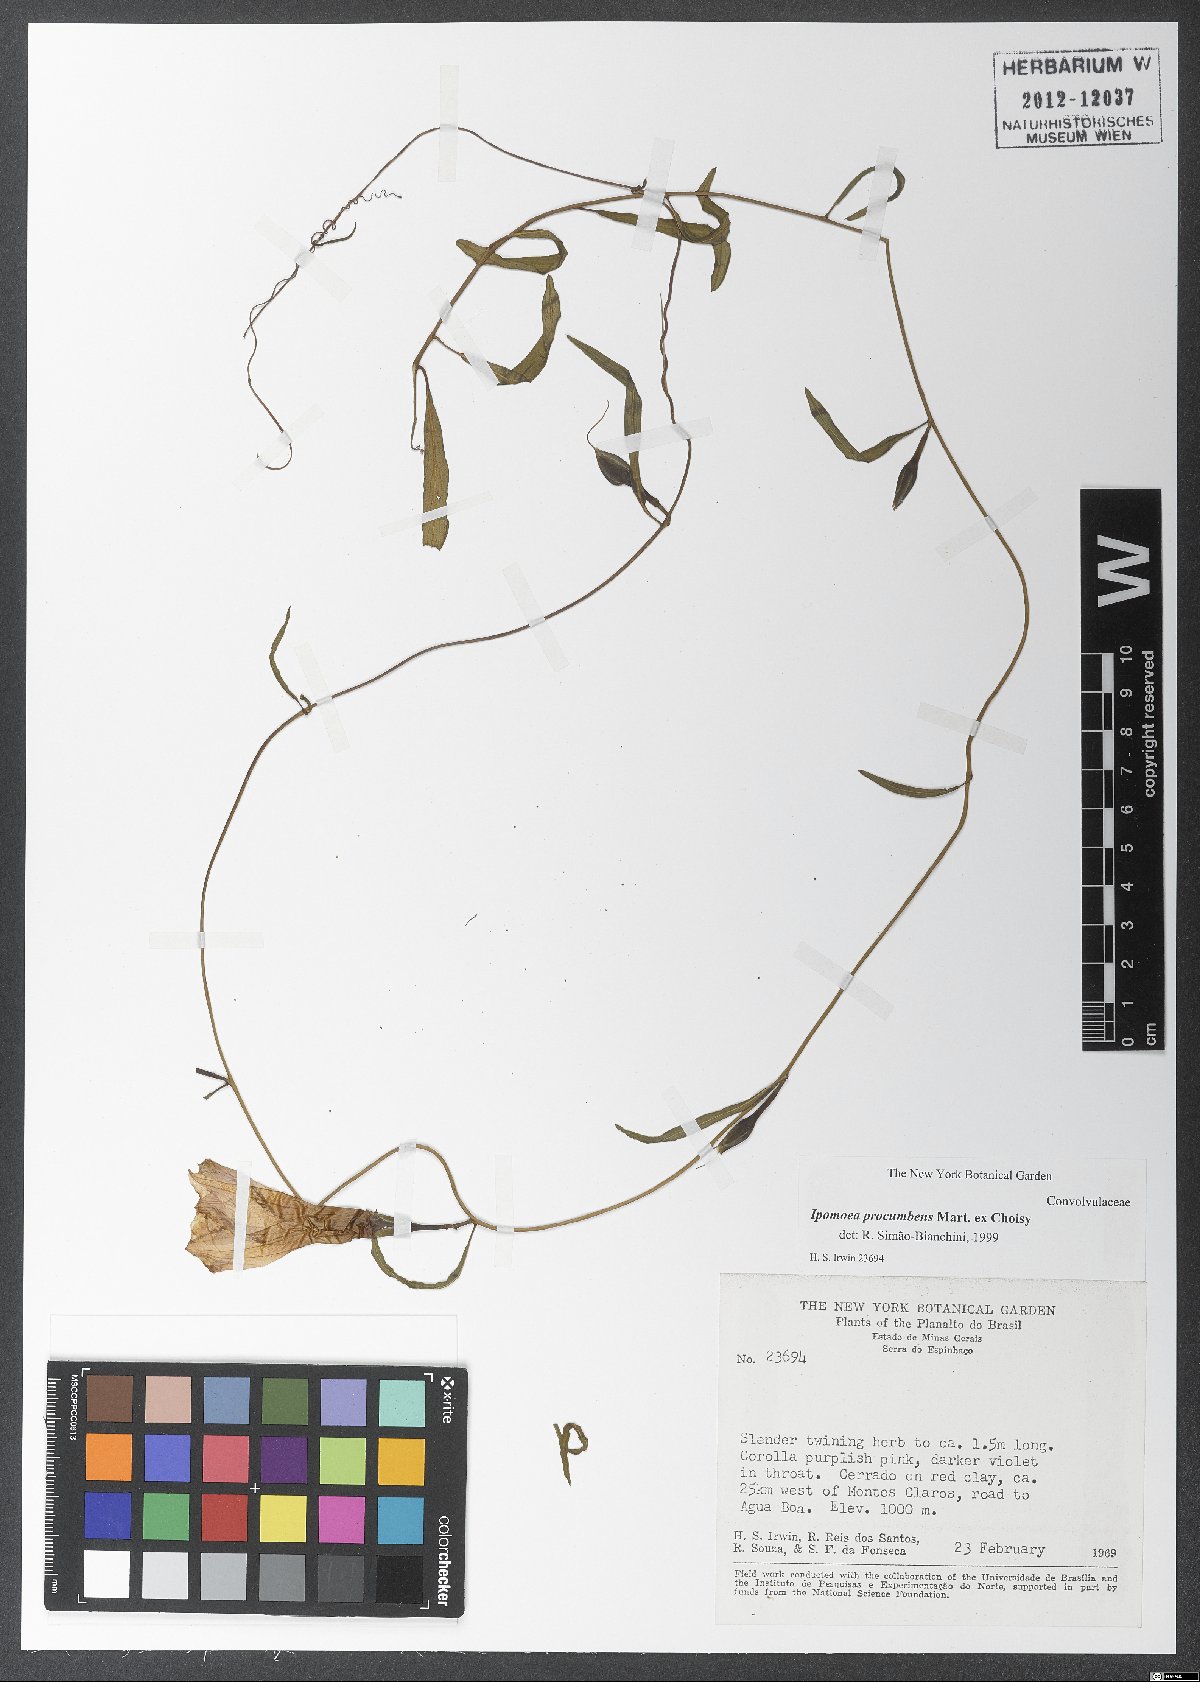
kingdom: Plantae
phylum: Tracheophyta
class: Magnoliopsida
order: Solanales
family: Convolvulaceae
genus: Ipomoea
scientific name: Ipomoea procumbens
